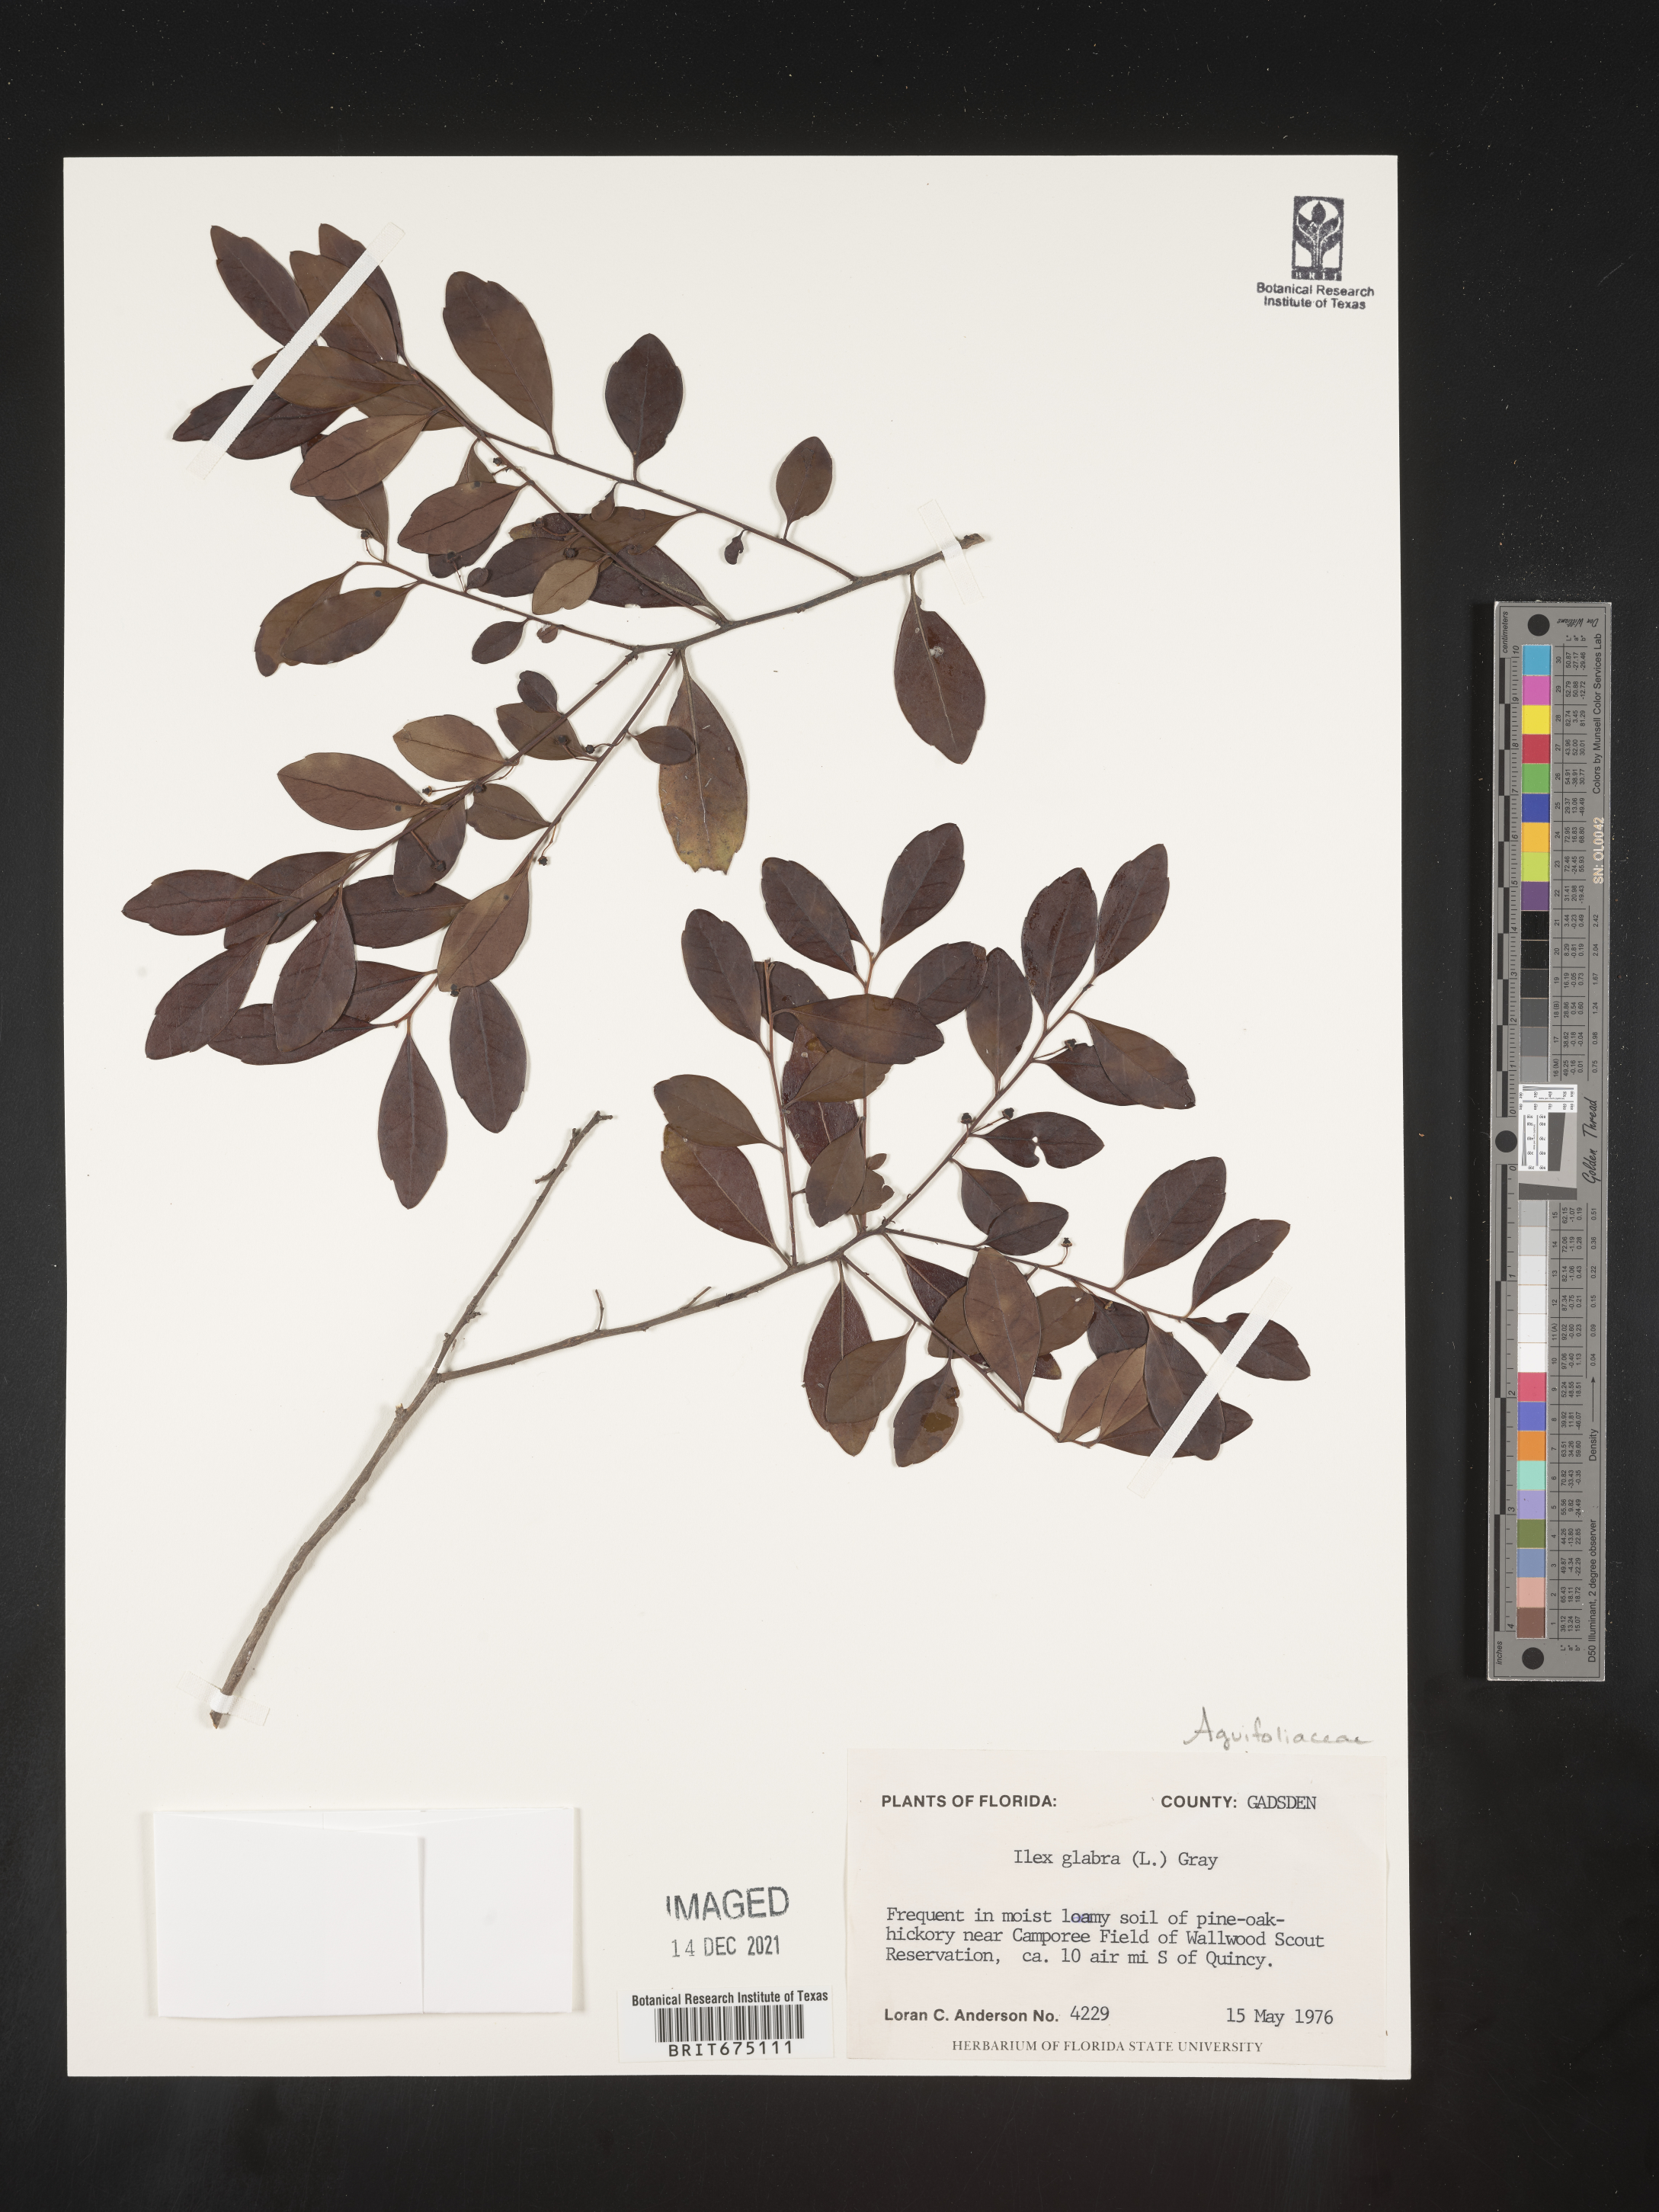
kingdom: Plantae
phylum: Tracheophyta
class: Magnoliopsida
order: Aquifoliales
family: Aquifoliaceae
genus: Ilex
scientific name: Ilex glabra
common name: Bitter gallberry
